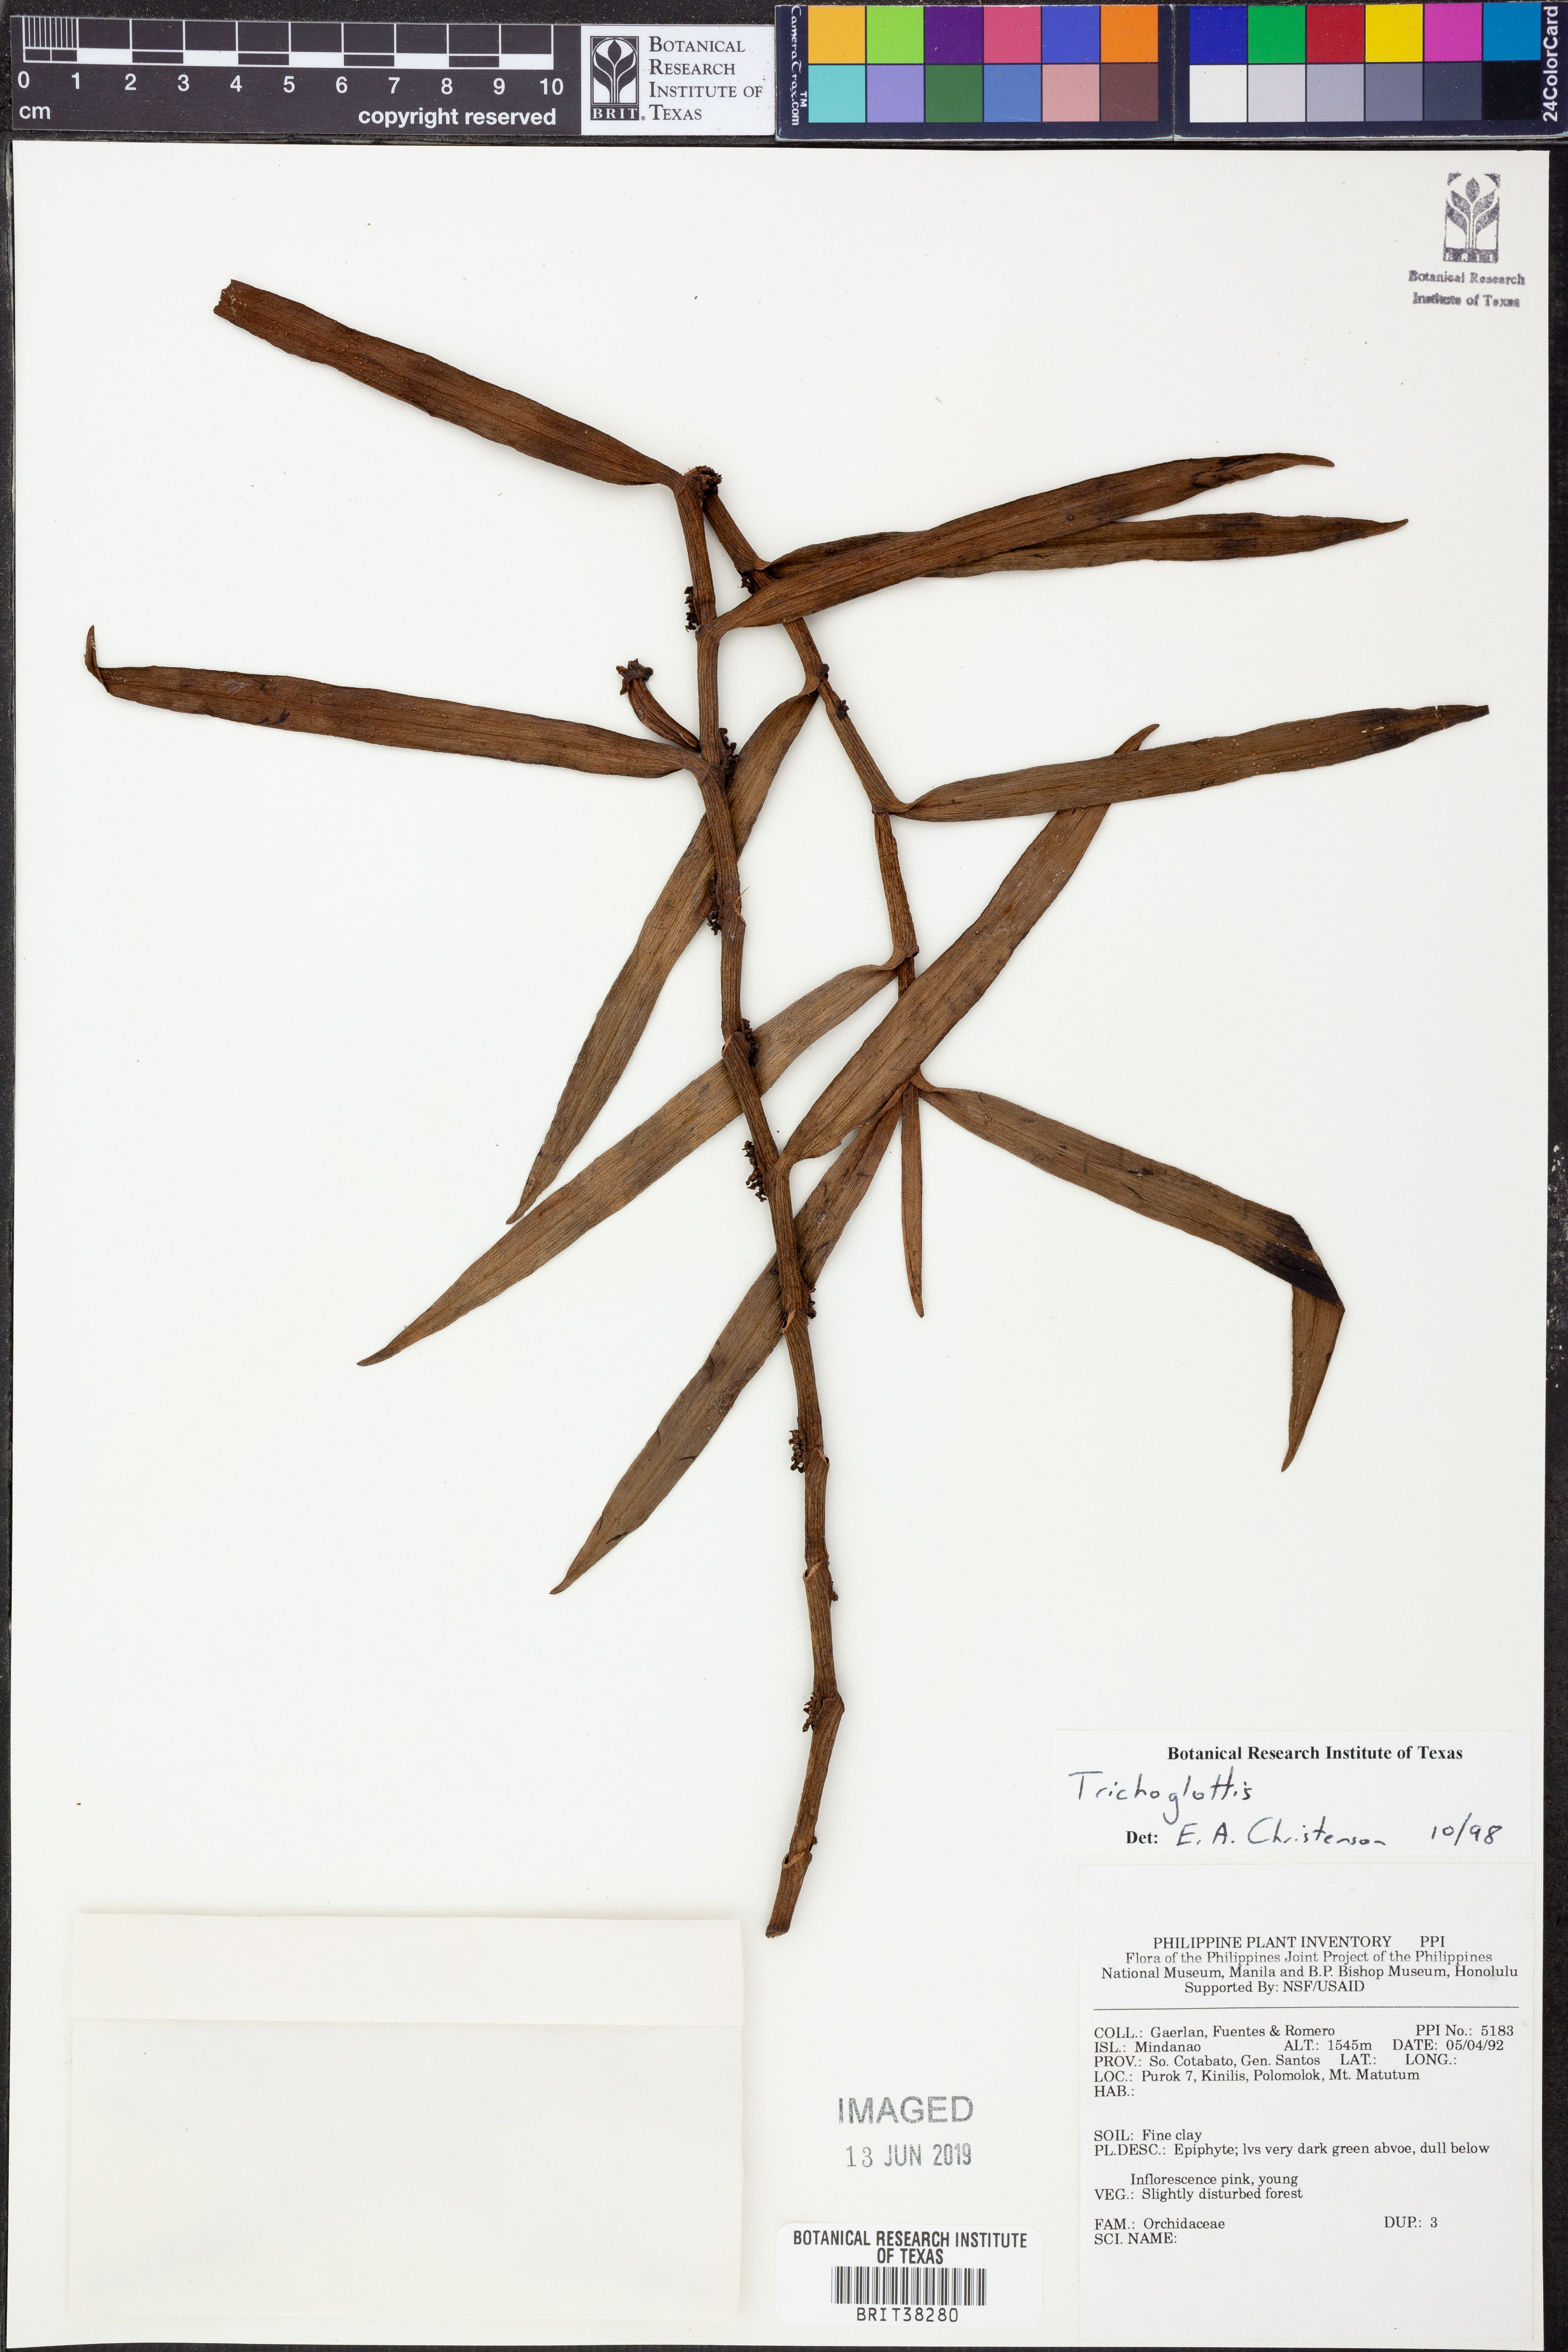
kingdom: Plantae
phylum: Tracheophyta
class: Liliopsida
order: Asparagales
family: Orchidaceae
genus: Trichoglottis
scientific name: Trichoglottis
